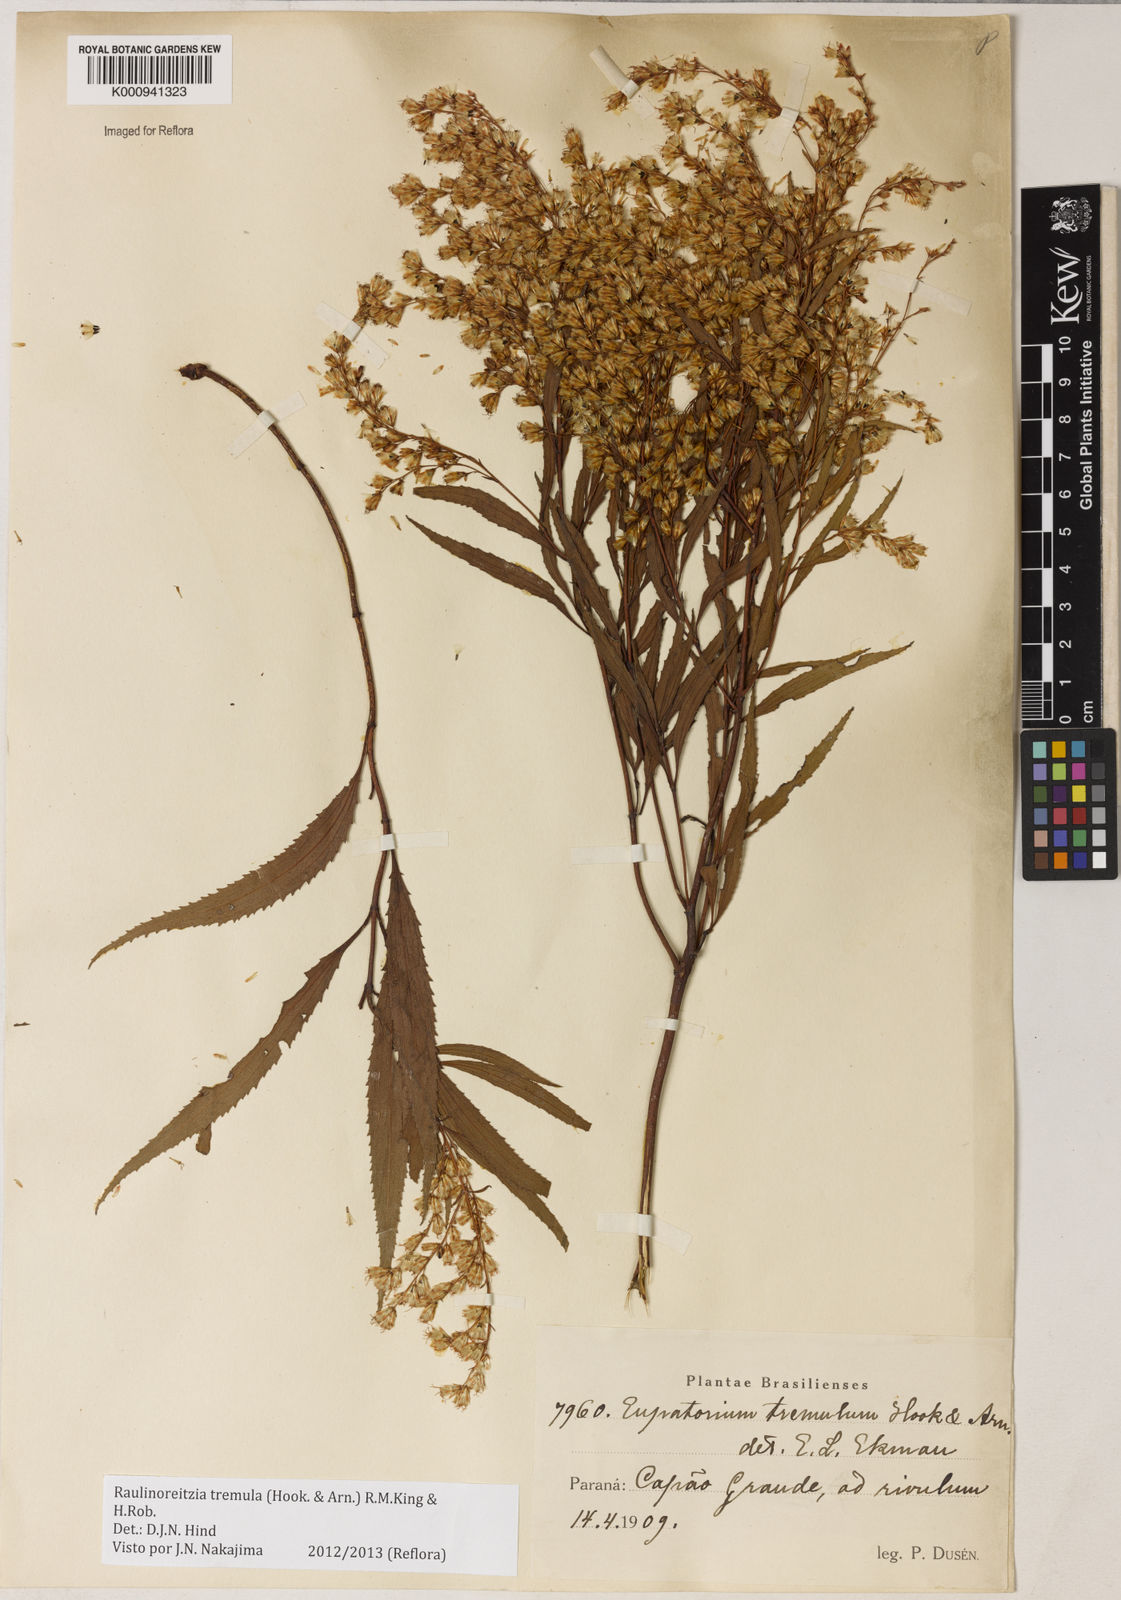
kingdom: Plantae
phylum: Tracheophyta
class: Magnoliopsida
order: Asterales
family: Asteraceae
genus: Raulinoreitzia
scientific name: Raulinoreitzia tremula
